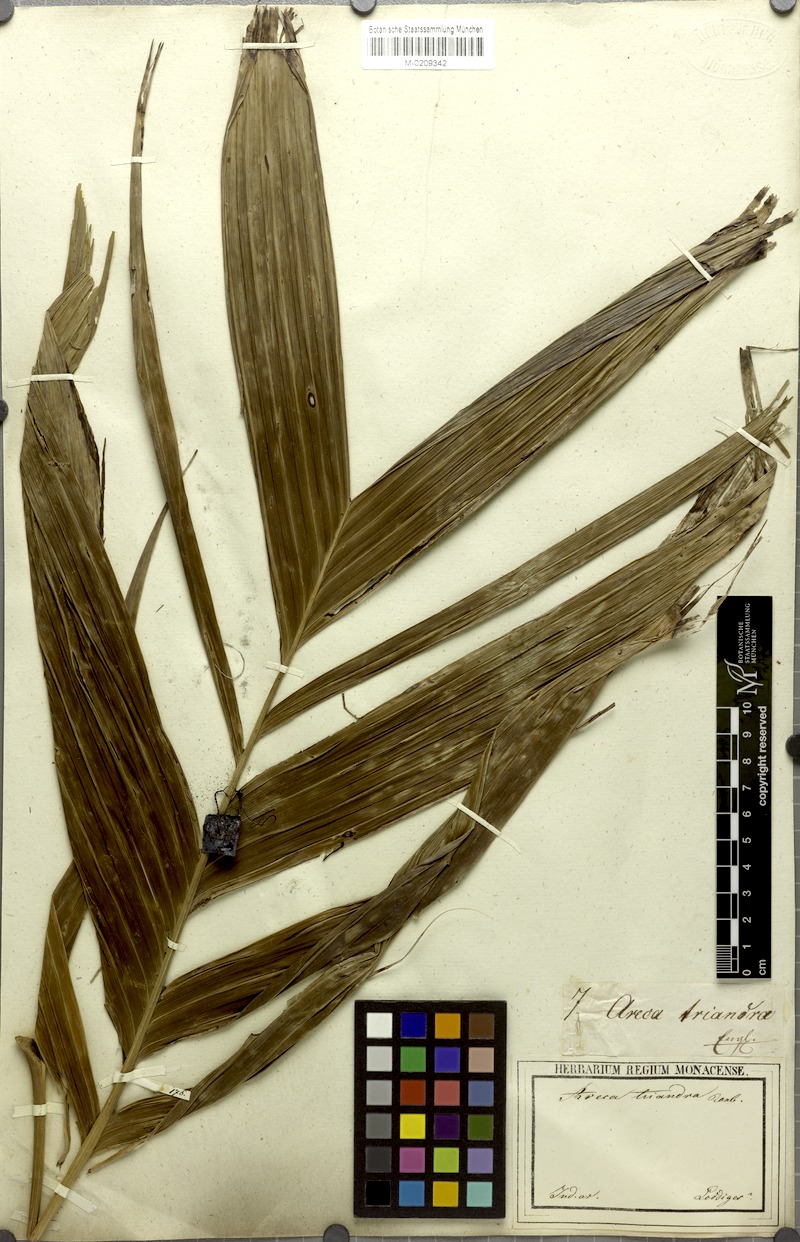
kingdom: Plantae
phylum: Tracheophyta
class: Liliopsida
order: Arecales
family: Arecaceae
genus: Areca
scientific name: Areca triandra
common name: Australian areca palm
